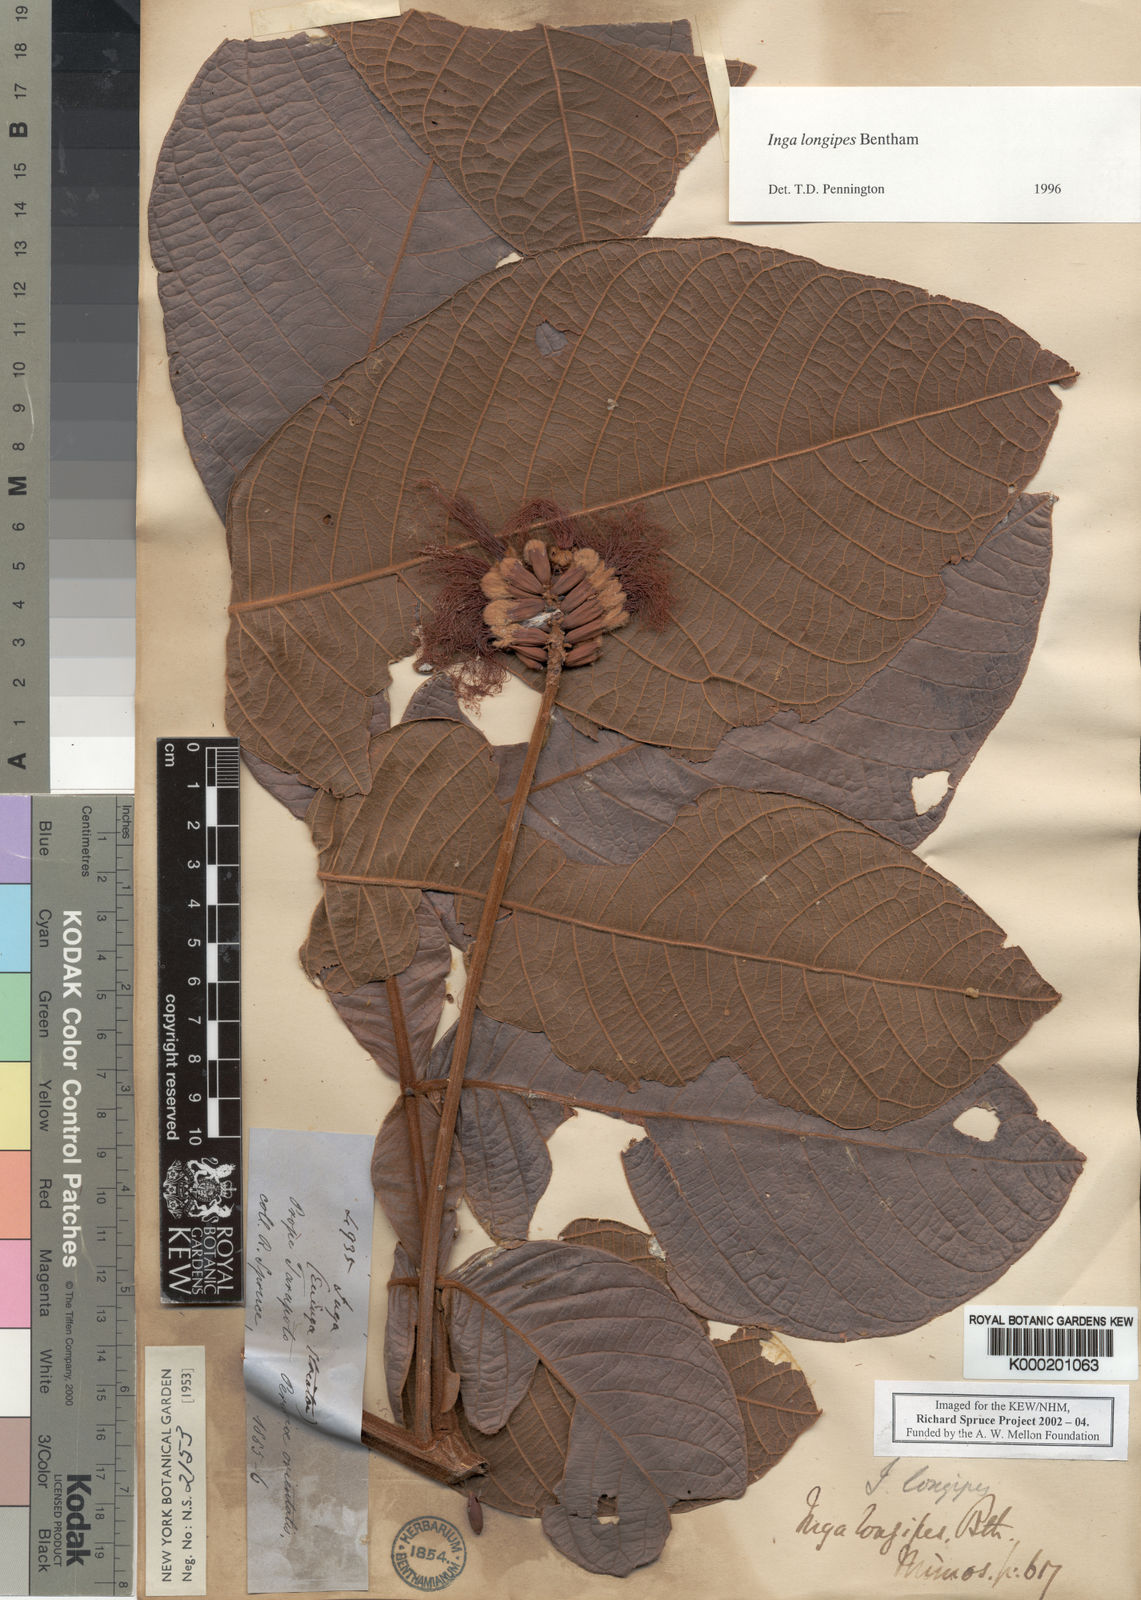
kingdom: Plantae
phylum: Tracheophyta
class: Magnoliopsida
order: Fabales
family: Fabaceae
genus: Inga
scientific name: Inga longipes
